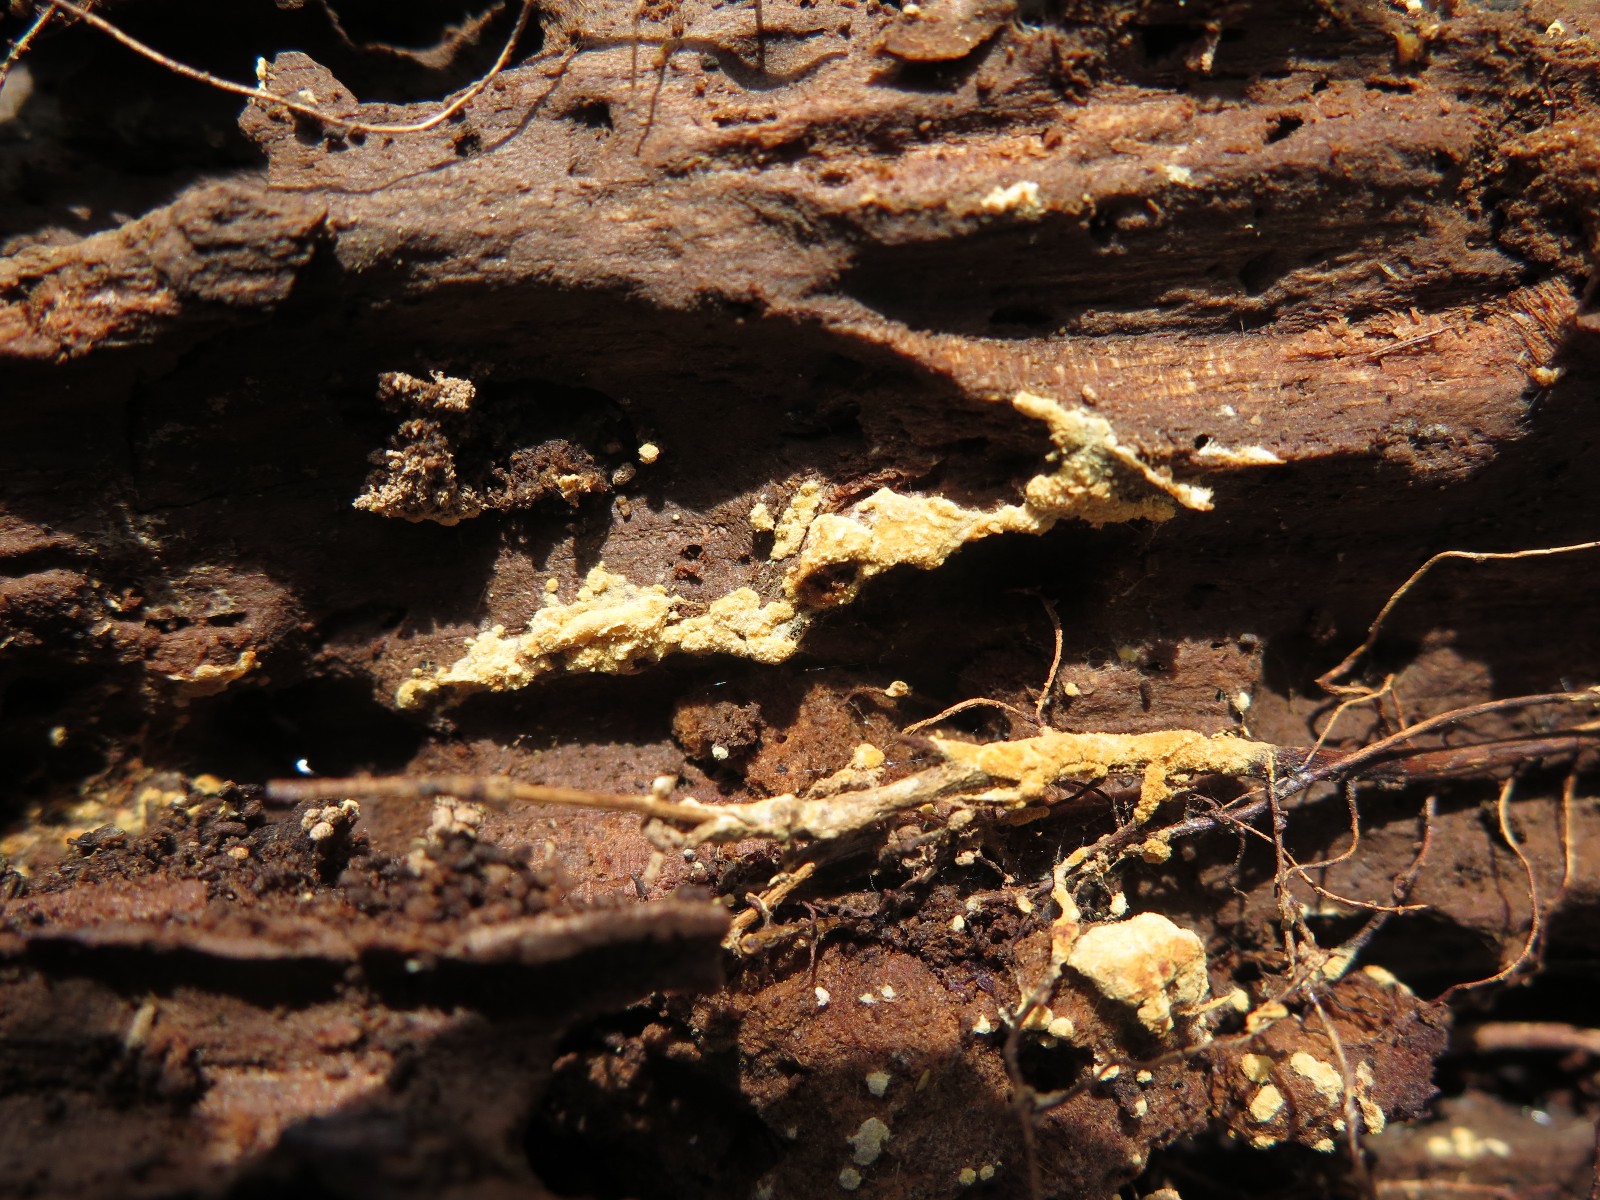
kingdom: Fungi
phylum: Basidiomycota
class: Agaricomycetes
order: Cantharellales
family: Botryobasidiaceae
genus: Botryobasidium
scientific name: Botryobasidium aureum
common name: gylden spindhinde
